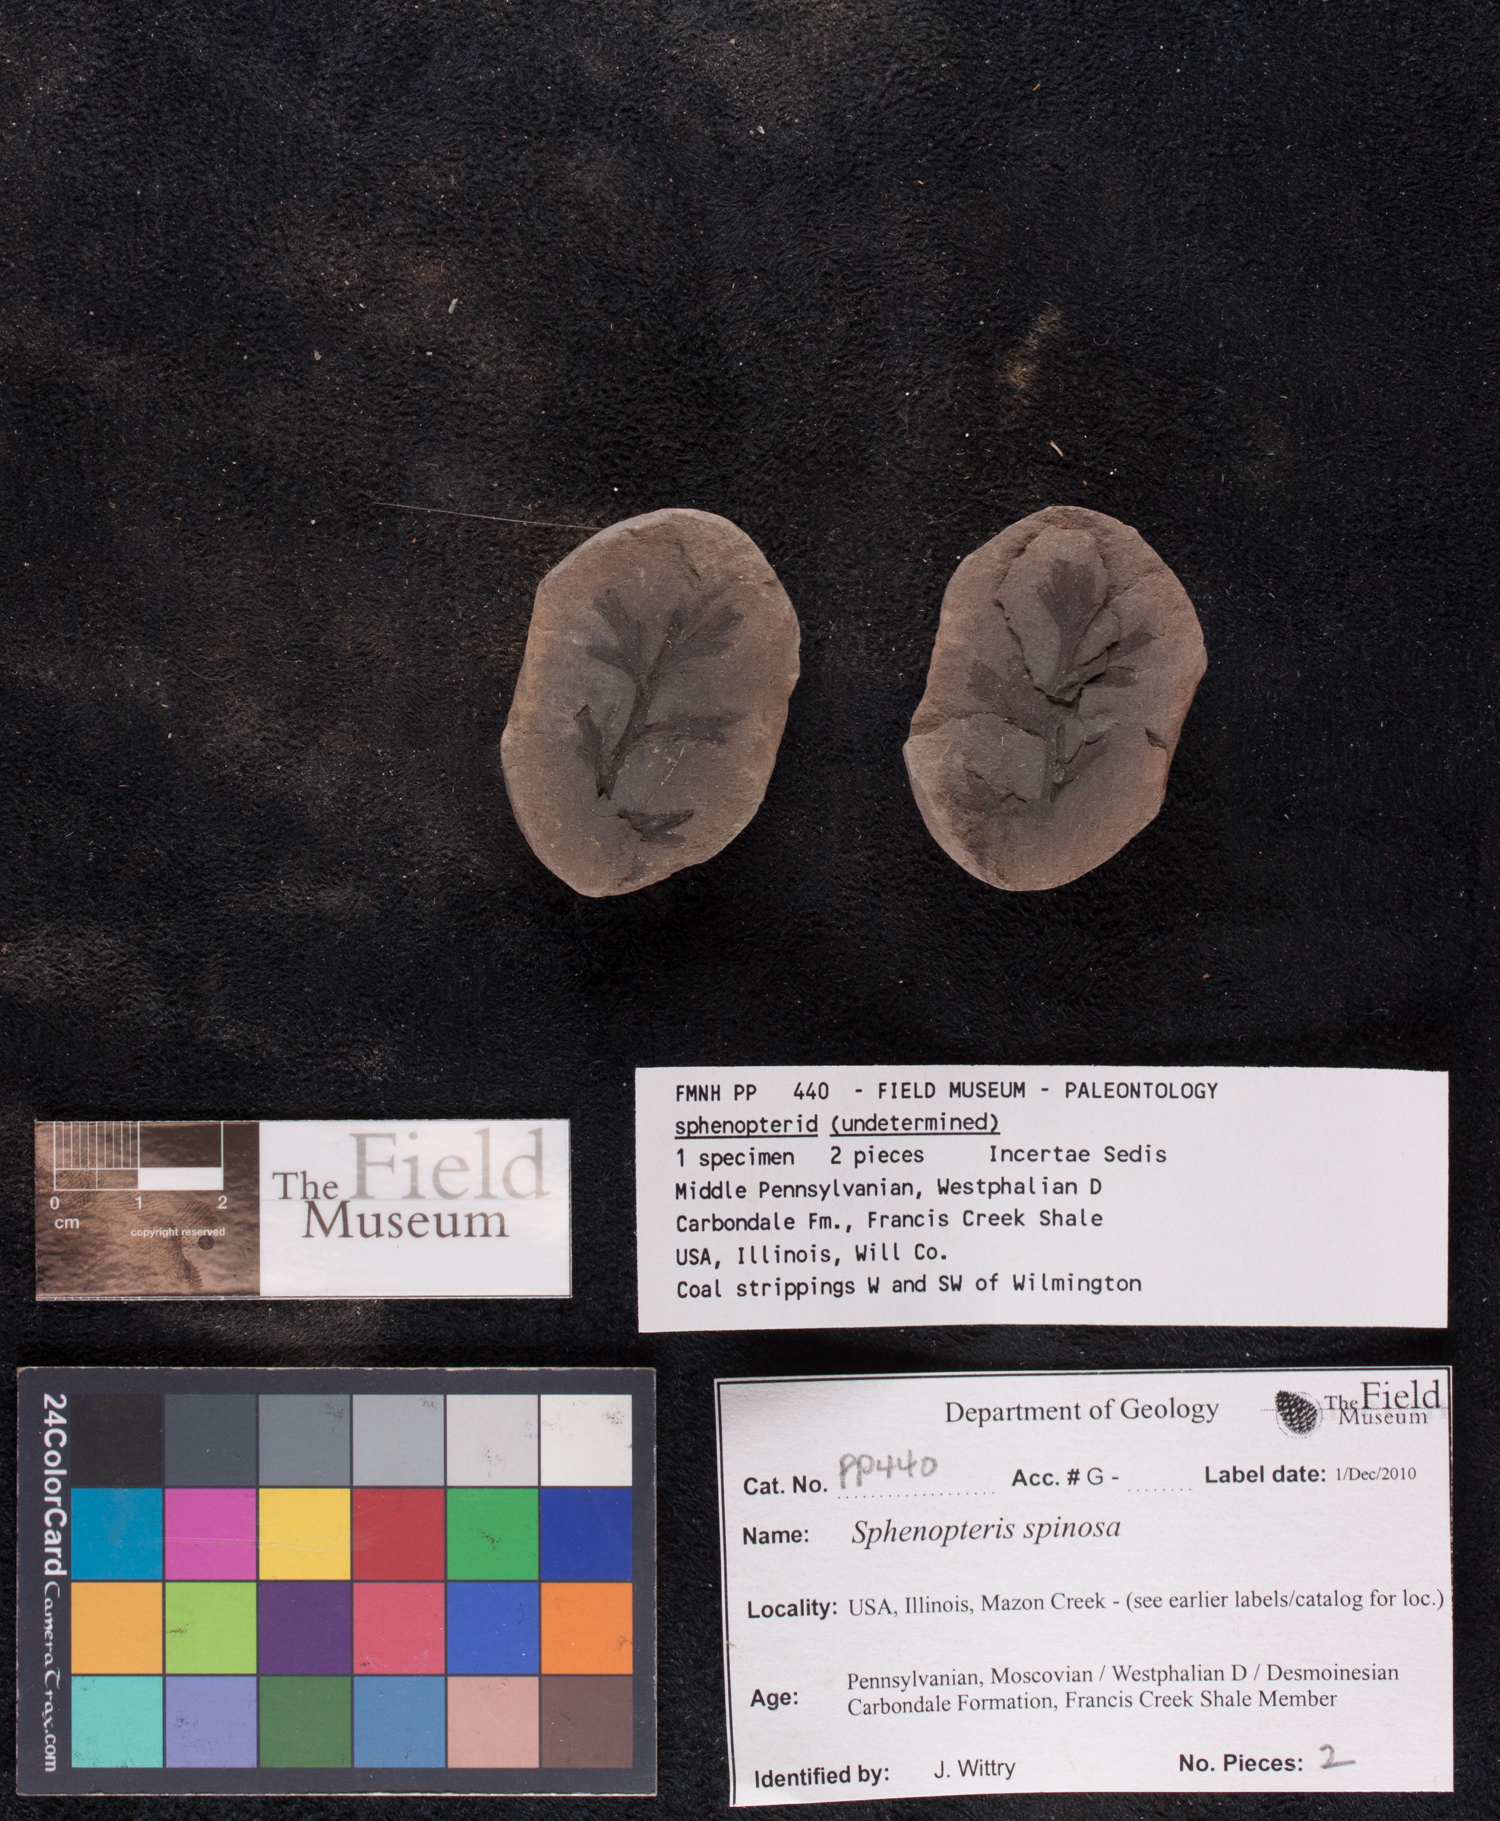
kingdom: Plantae
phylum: Tracheophyta
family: Lyginopteridaceae
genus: Sphenopteris
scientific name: Sphenopteris
